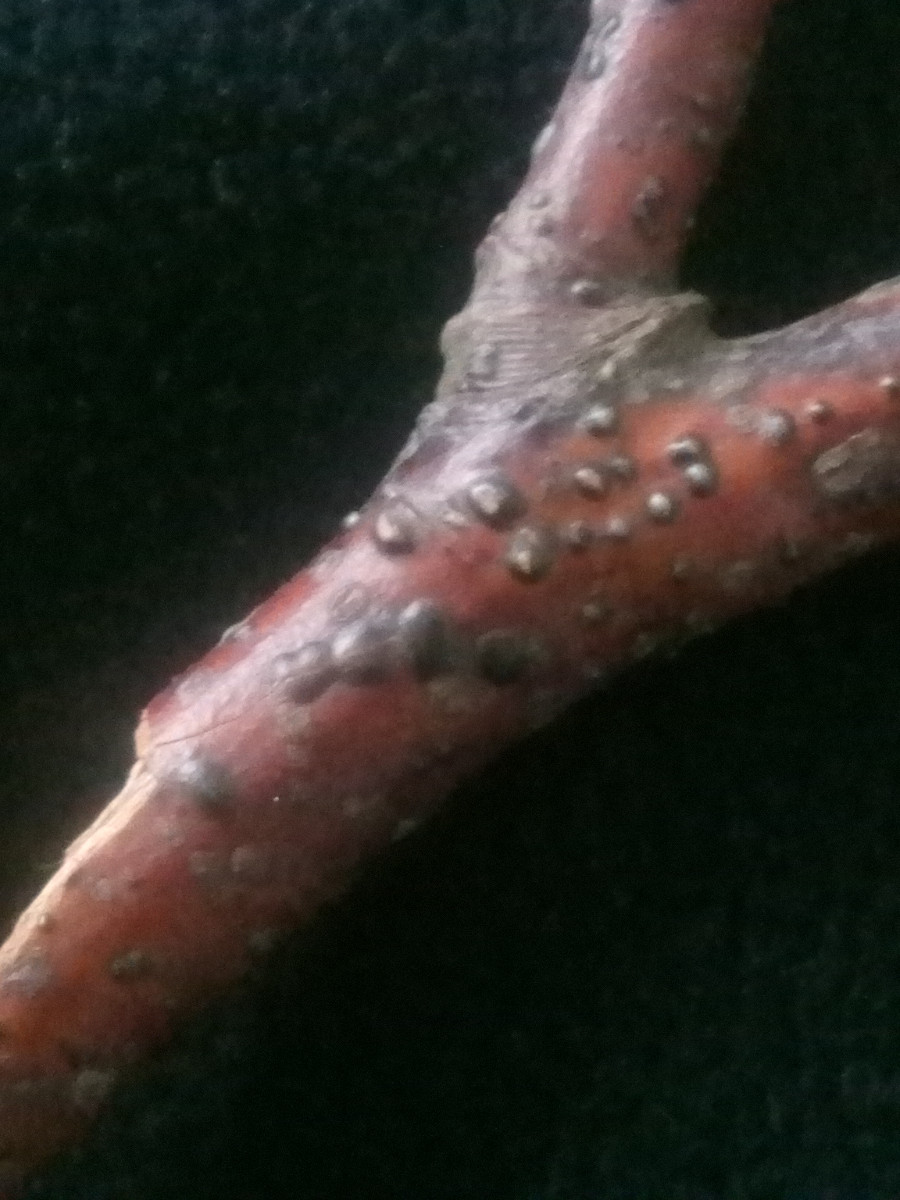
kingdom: Fungi
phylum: Ascomycota
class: Sordariomycetes
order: Diaporthales
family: Asterosporiaceae
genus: Asterosporium
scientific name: Asterosporium asterospermum
